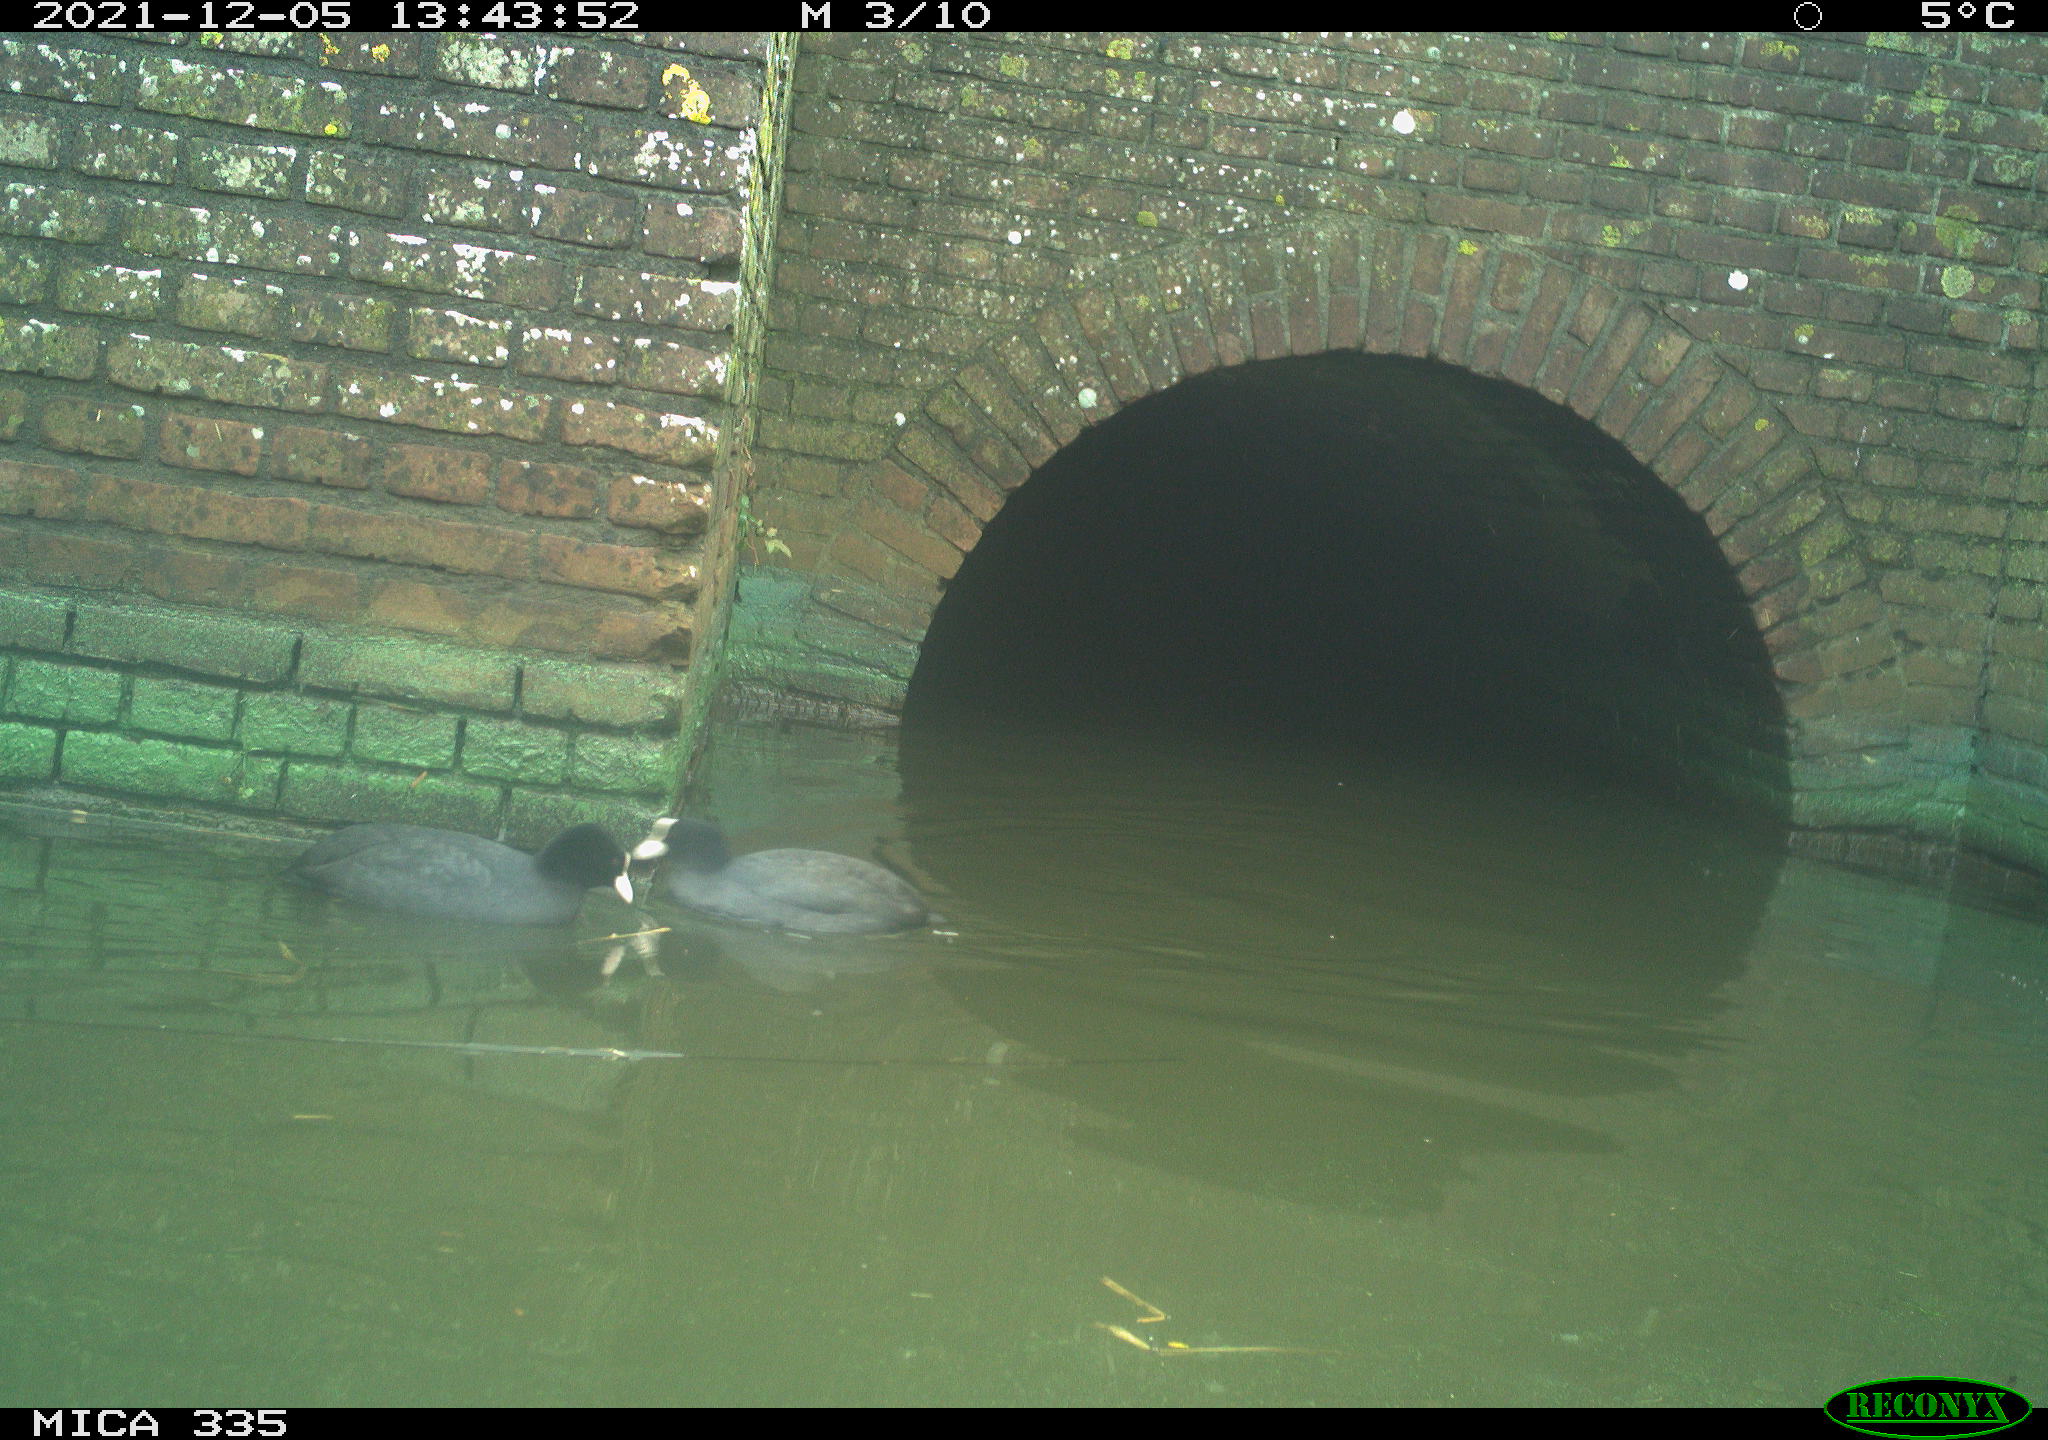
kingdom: Animalia
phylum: Chordata
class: Aves
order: Podicipediformes
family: Podicipedidae
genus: Podiceps
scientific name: Podiceps cristatus
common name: Great crested grebe
